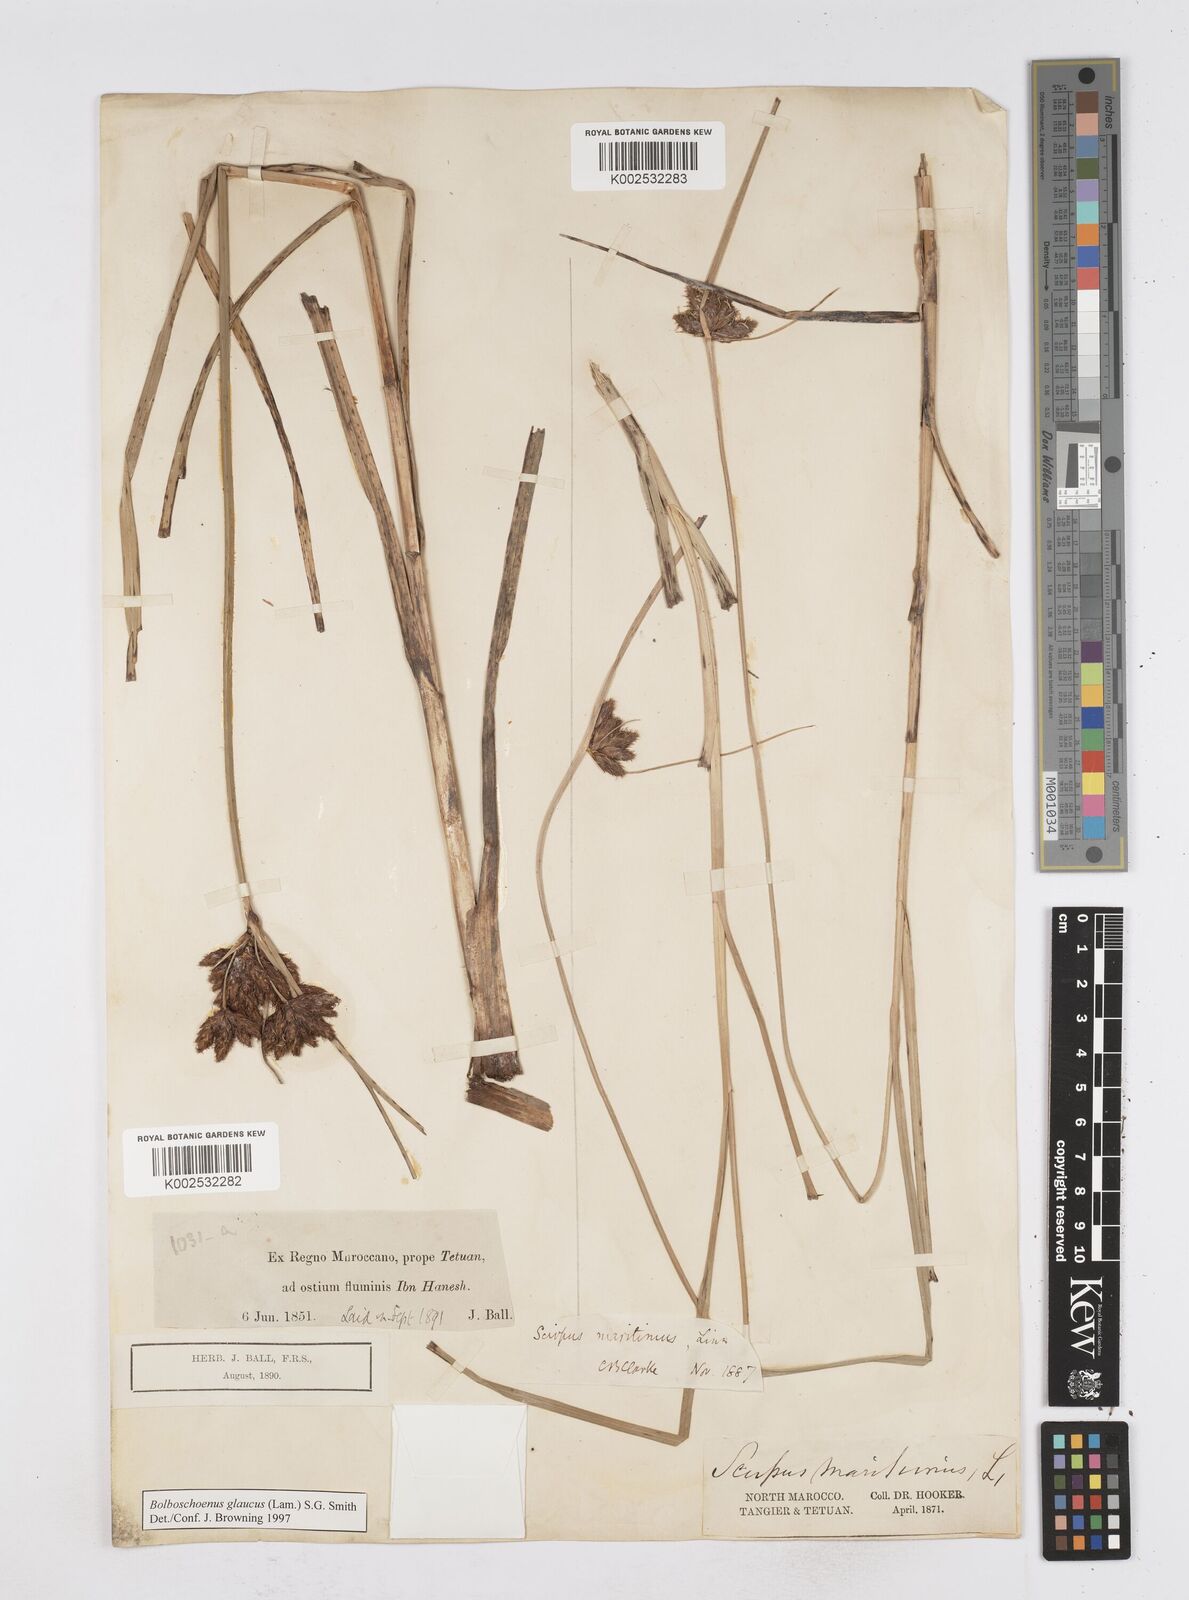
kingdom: Plantae
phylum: Tracheophyta
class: Liliopsida
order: Poales
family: Cyperaceae
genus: Bolboschoenus
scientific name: Bolboschoenus maritimus
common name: Sea club-rush
